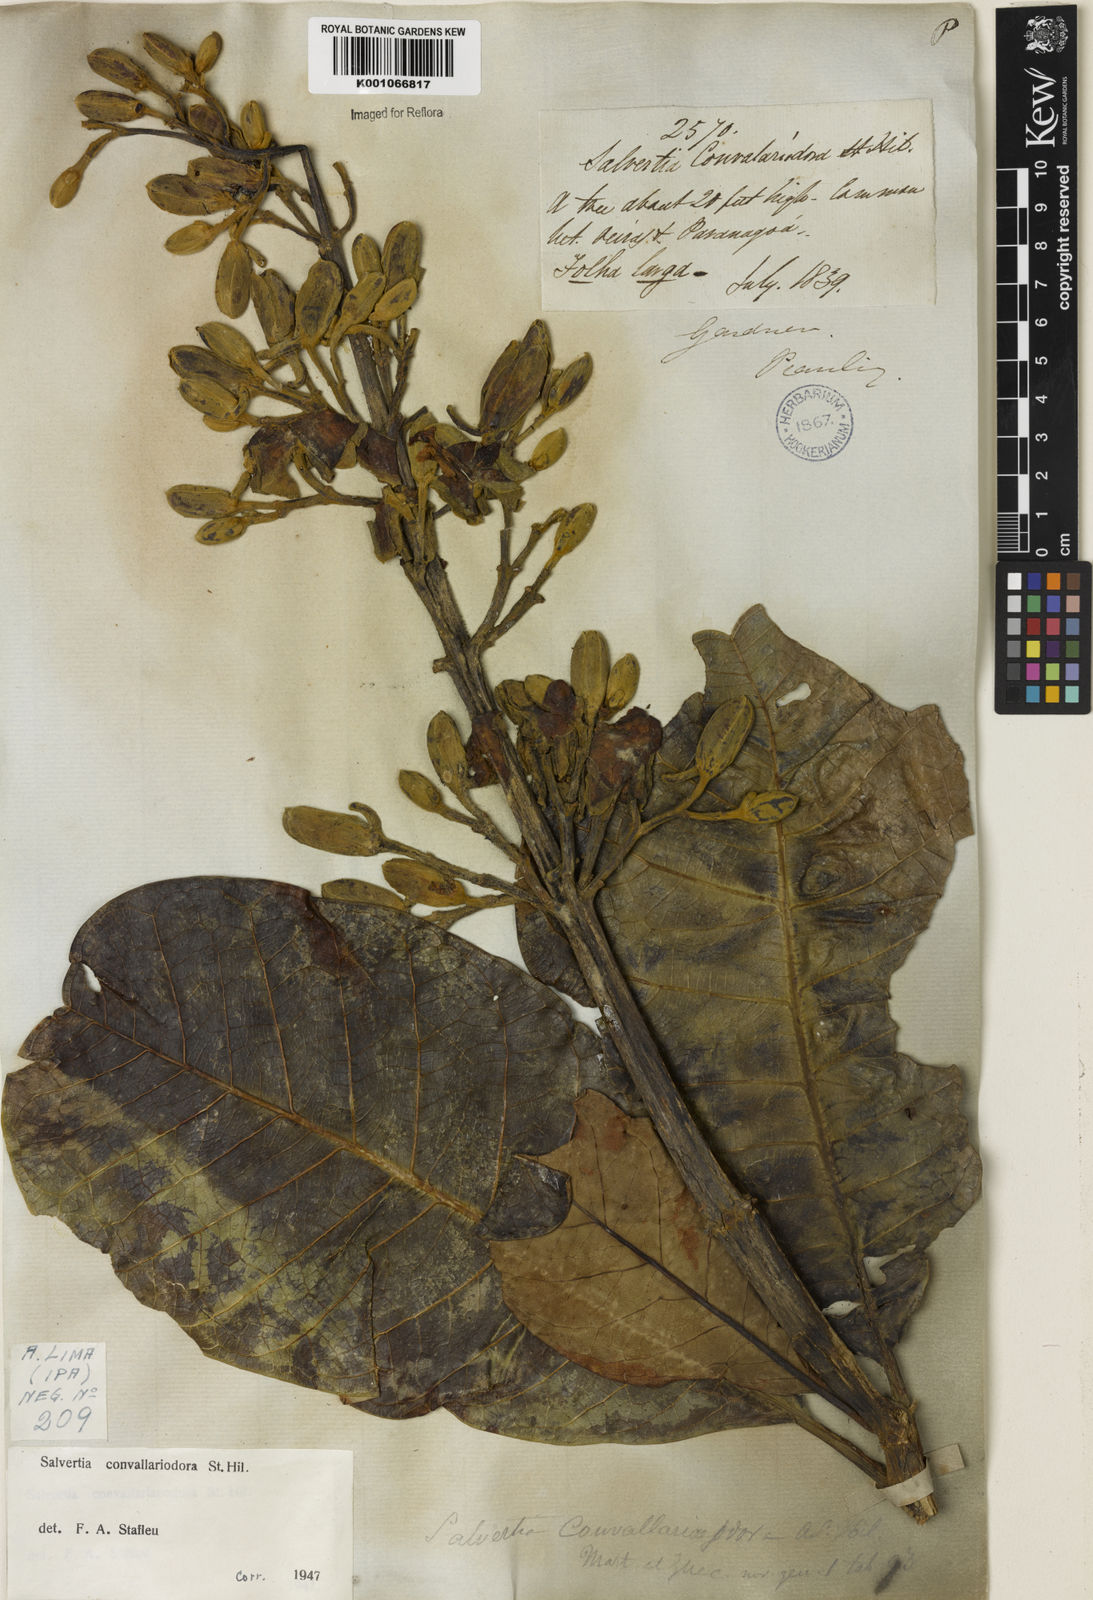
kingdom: Plantae
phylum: Tracheophyta
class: Magnoliopsida
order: Myrtales
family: Vochysiaceae
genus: Salvertia
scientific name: Salvertia convallariodora
